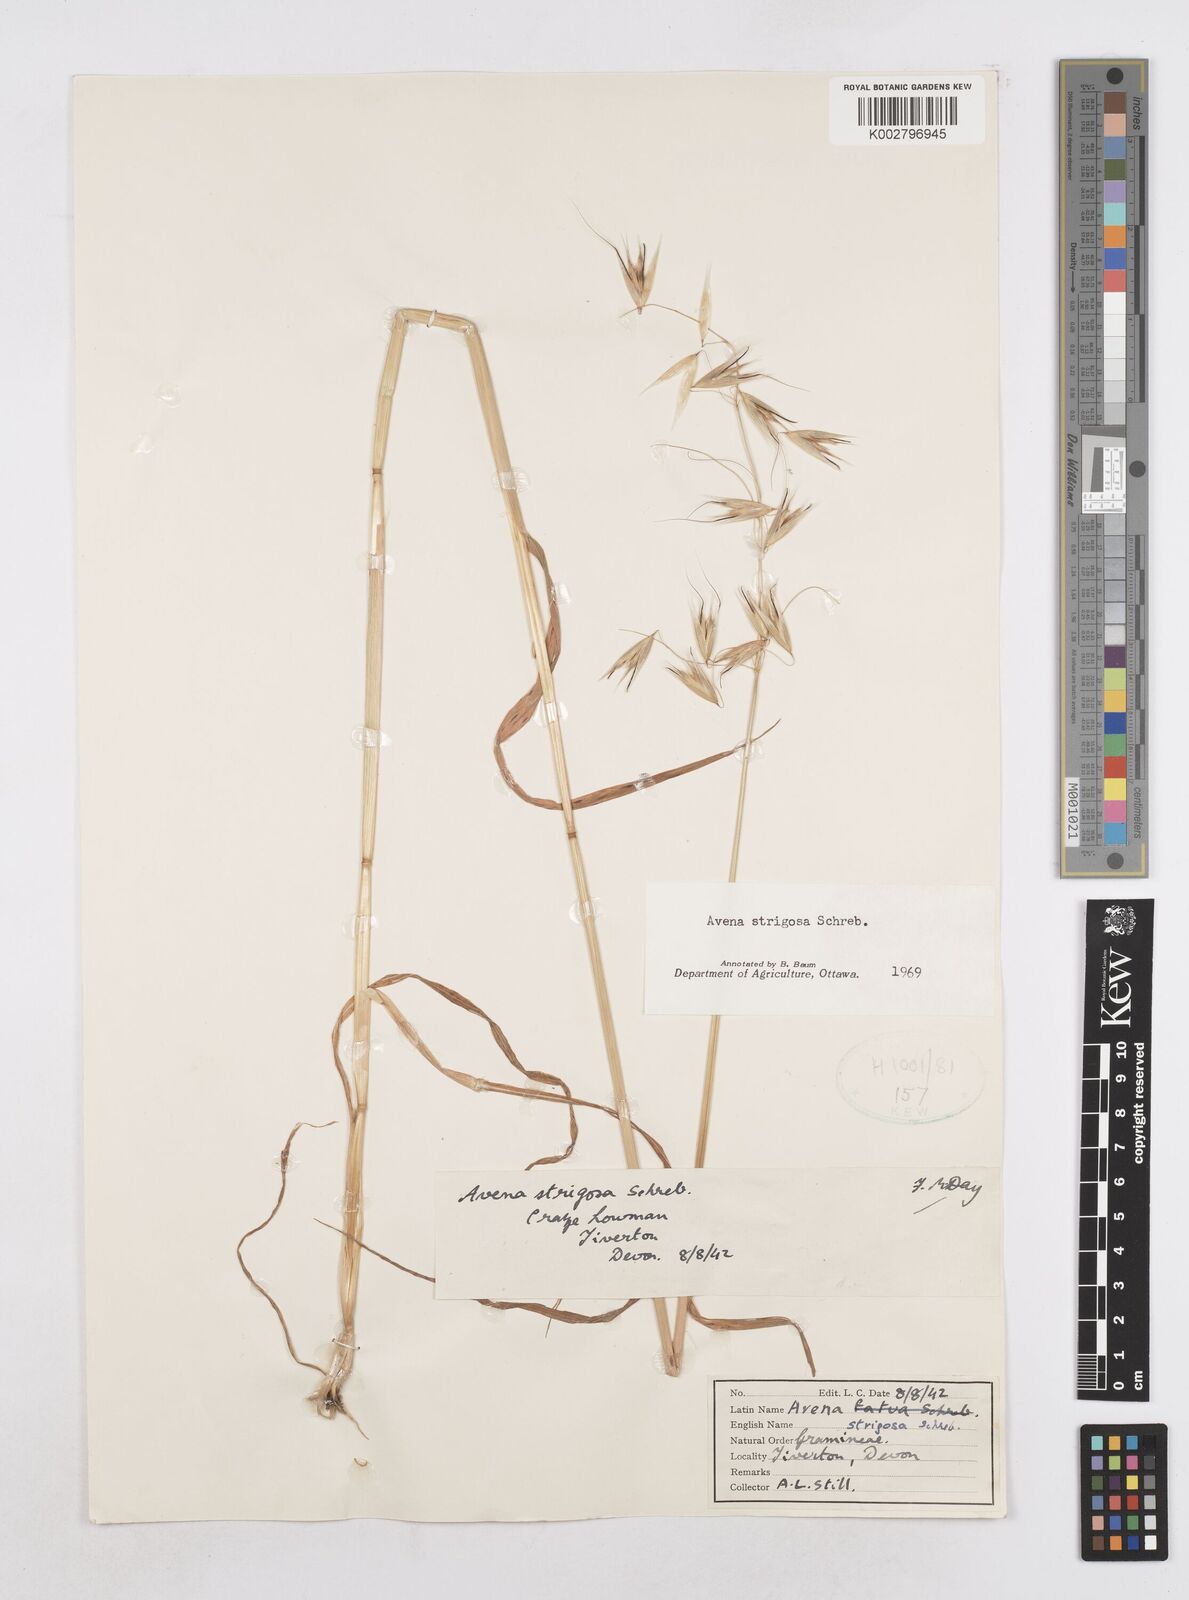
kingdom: Plantae
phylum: Tracheophyta
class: Liliopsida
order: Poales
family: Poaceae
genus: Avena
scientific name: Avena strigosa
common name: Bristle oat
